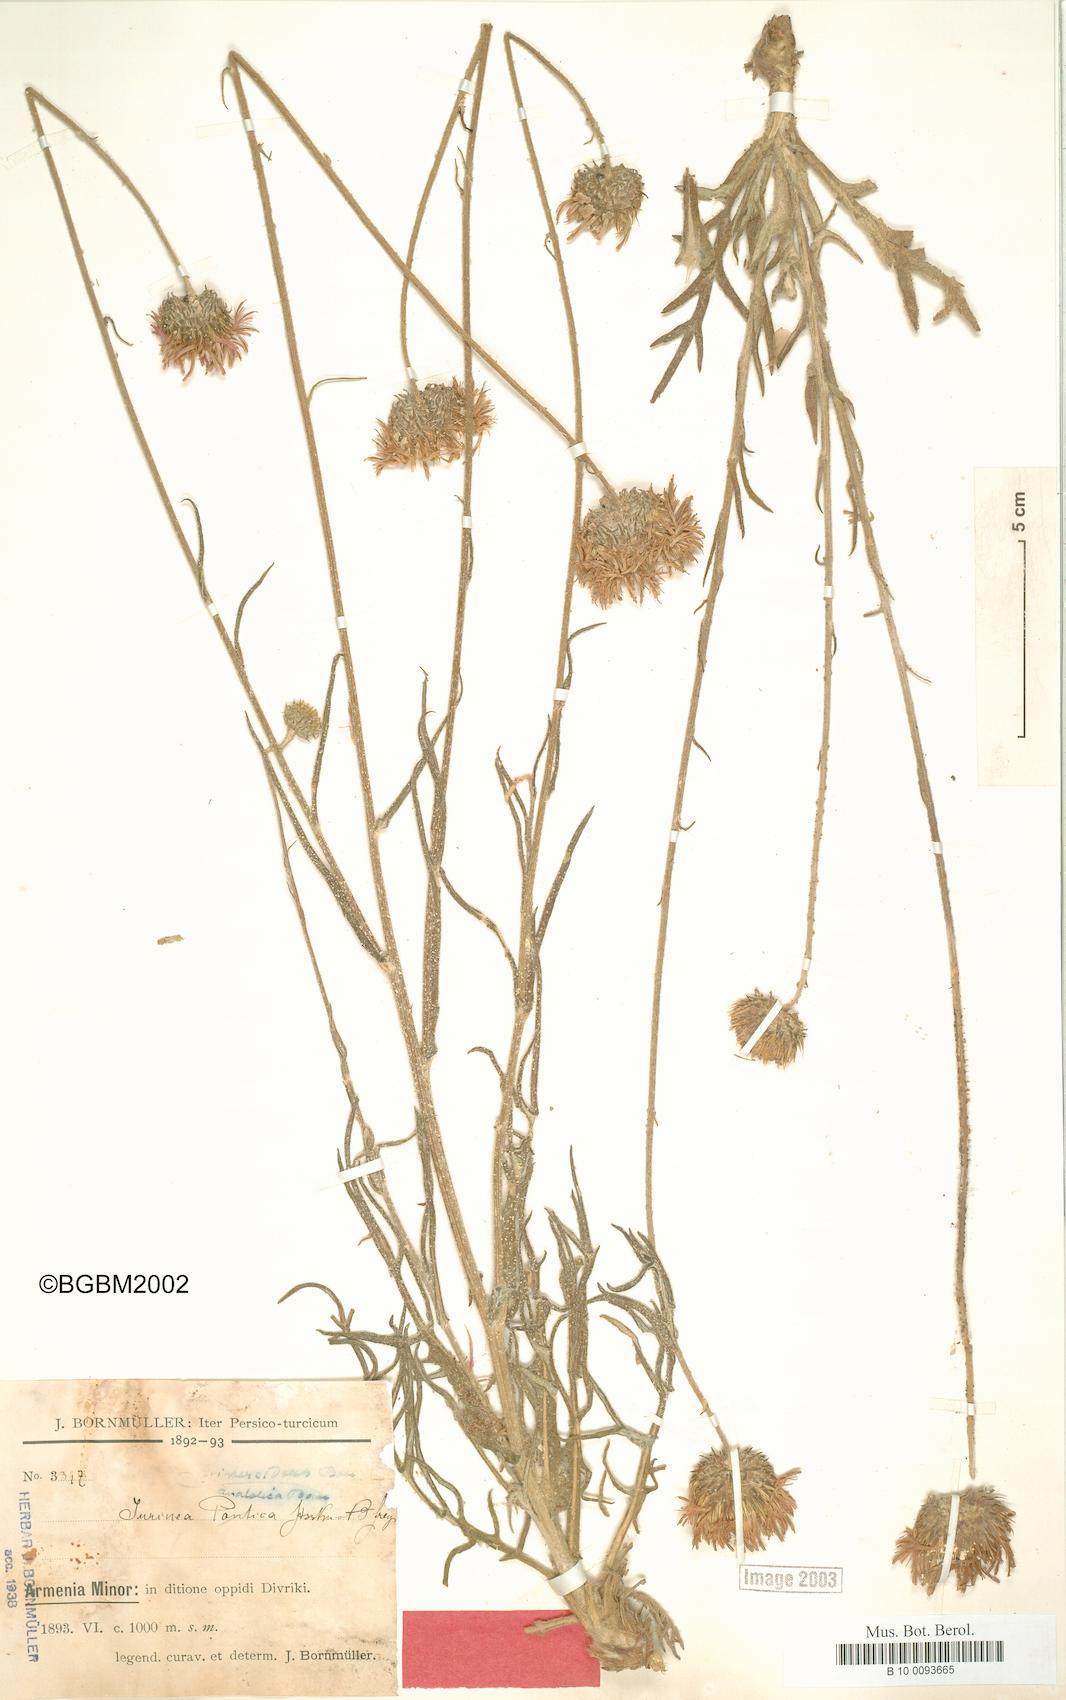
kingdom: Plantae
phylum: Tracheophyta
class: Magnoliopsida
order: Asterales
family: Asteraceae
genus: Jurinea
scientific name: Jurinea pontica
